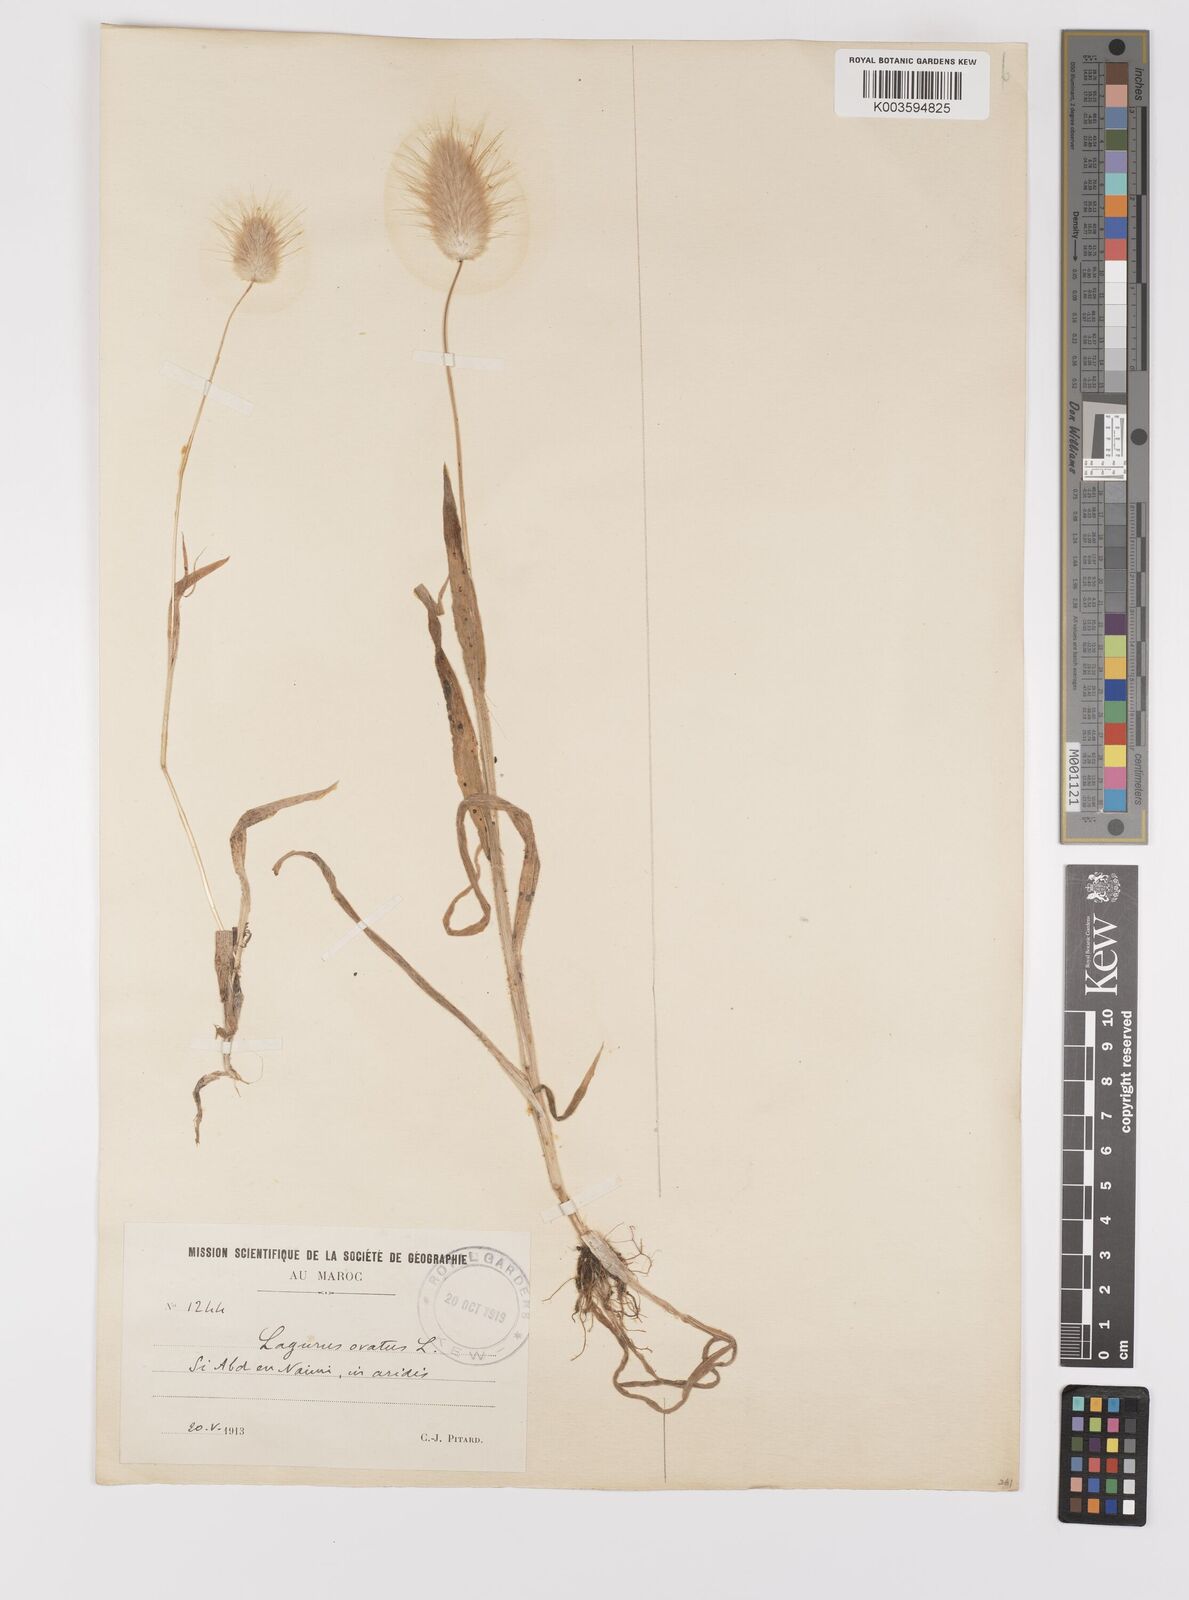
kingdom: Plantae
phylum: Tracheophyta
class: Liliopsida
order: Poales
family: Poaceae
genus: Lagurus
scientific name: Lagurus ovatus
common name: Hare's-tail
